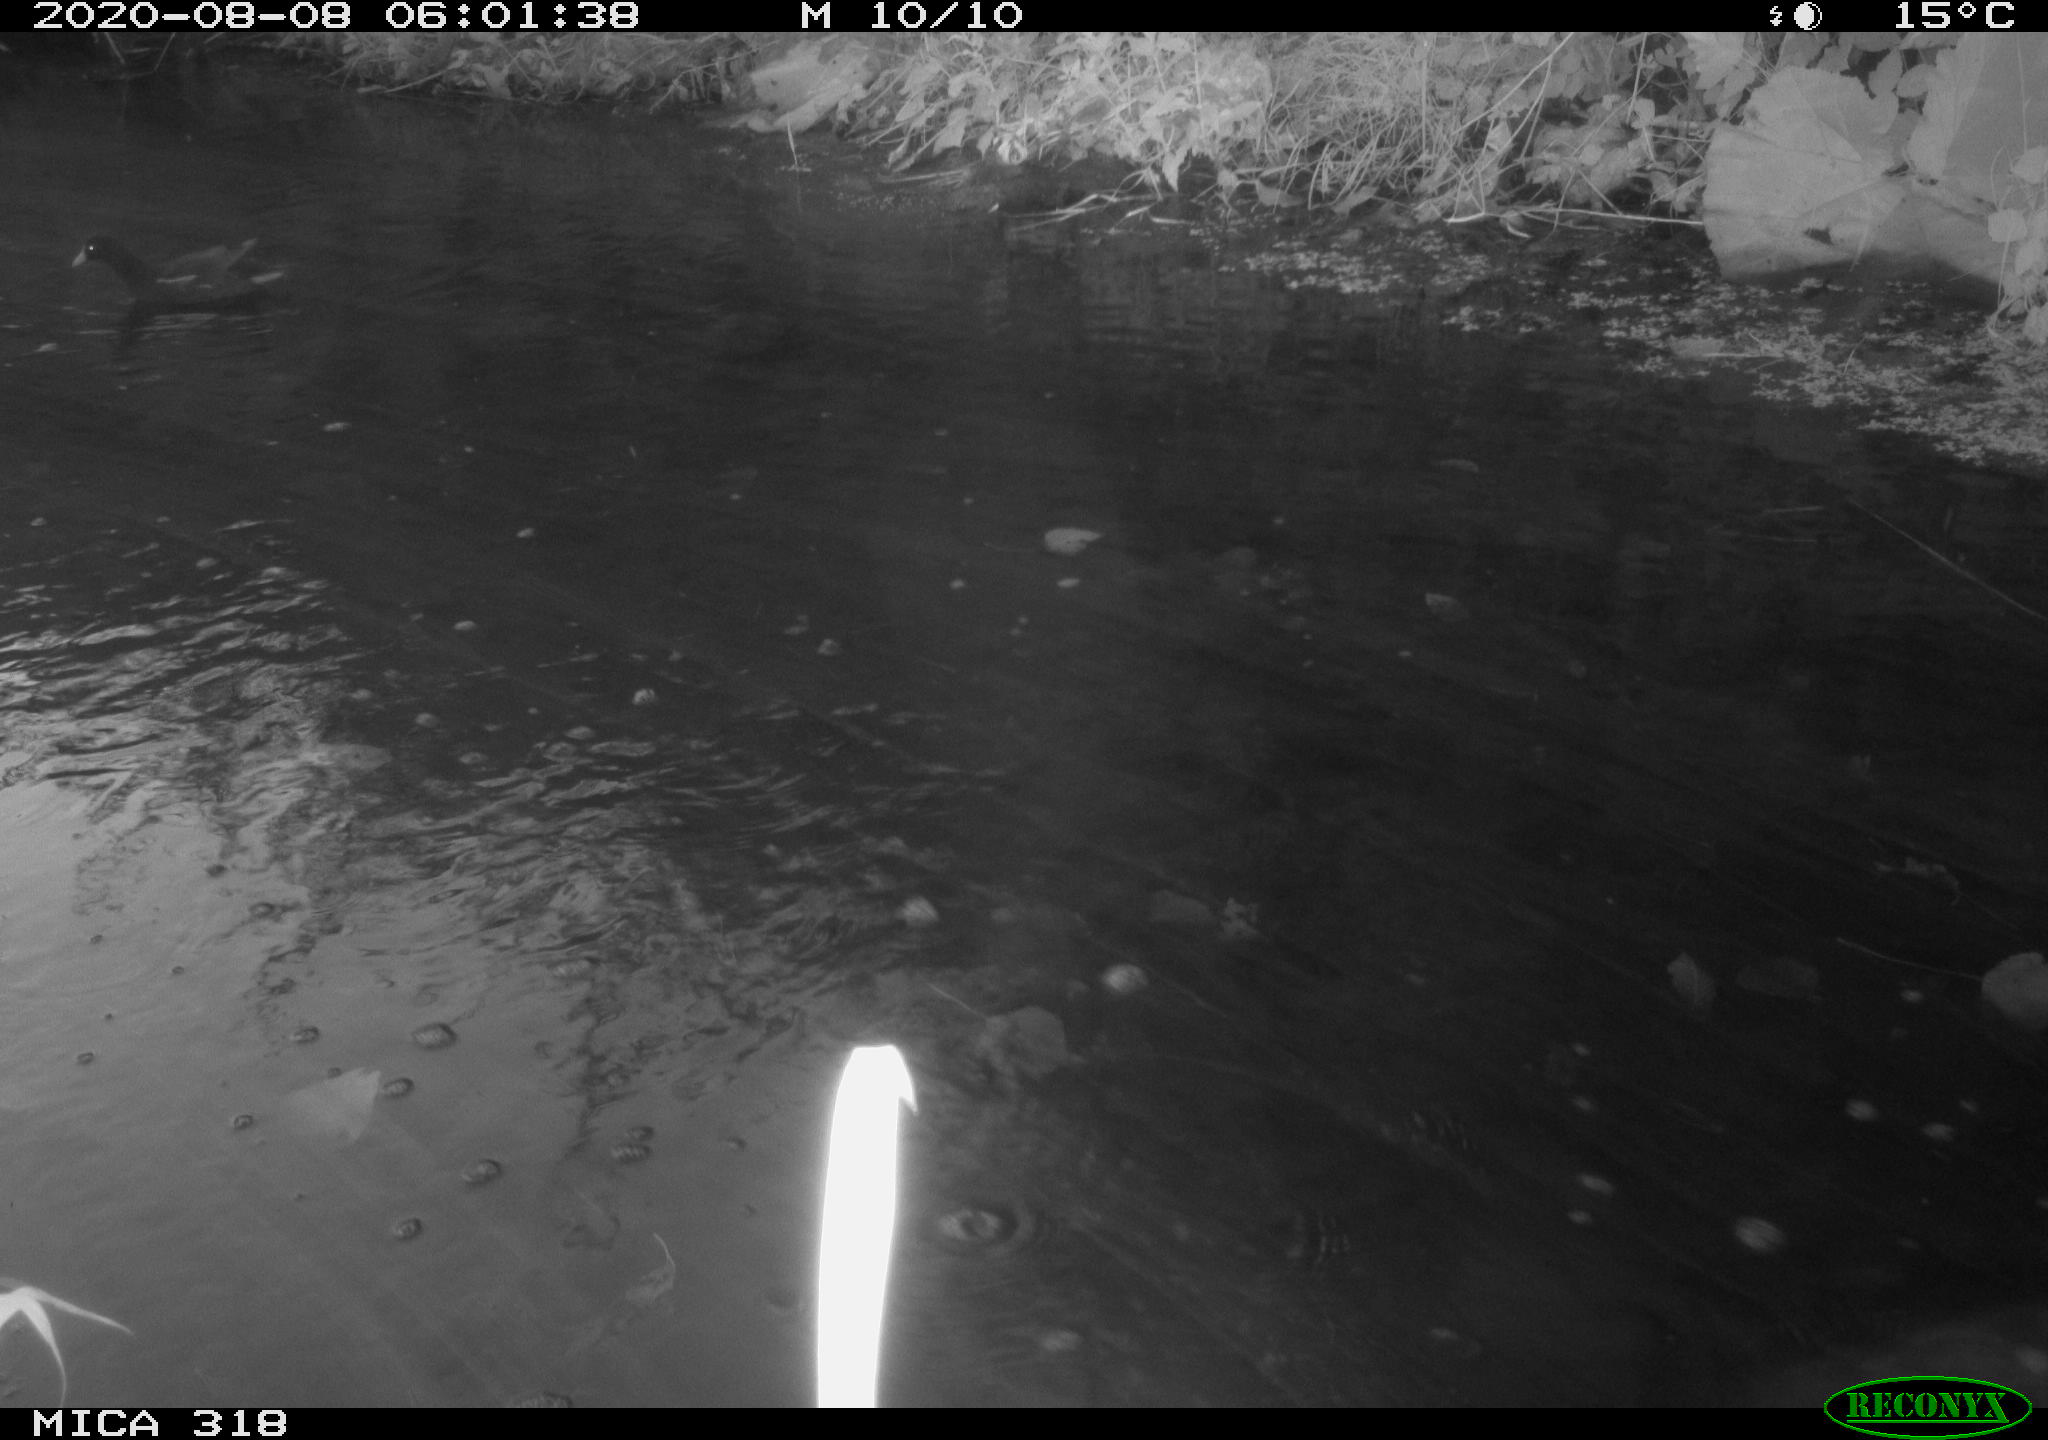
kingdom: Animalia
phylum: Chordata
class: Aves
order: Gruiformes
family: Rallidae
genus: Gallinula
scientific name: Gallinula chloropus
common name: Common moorhen
